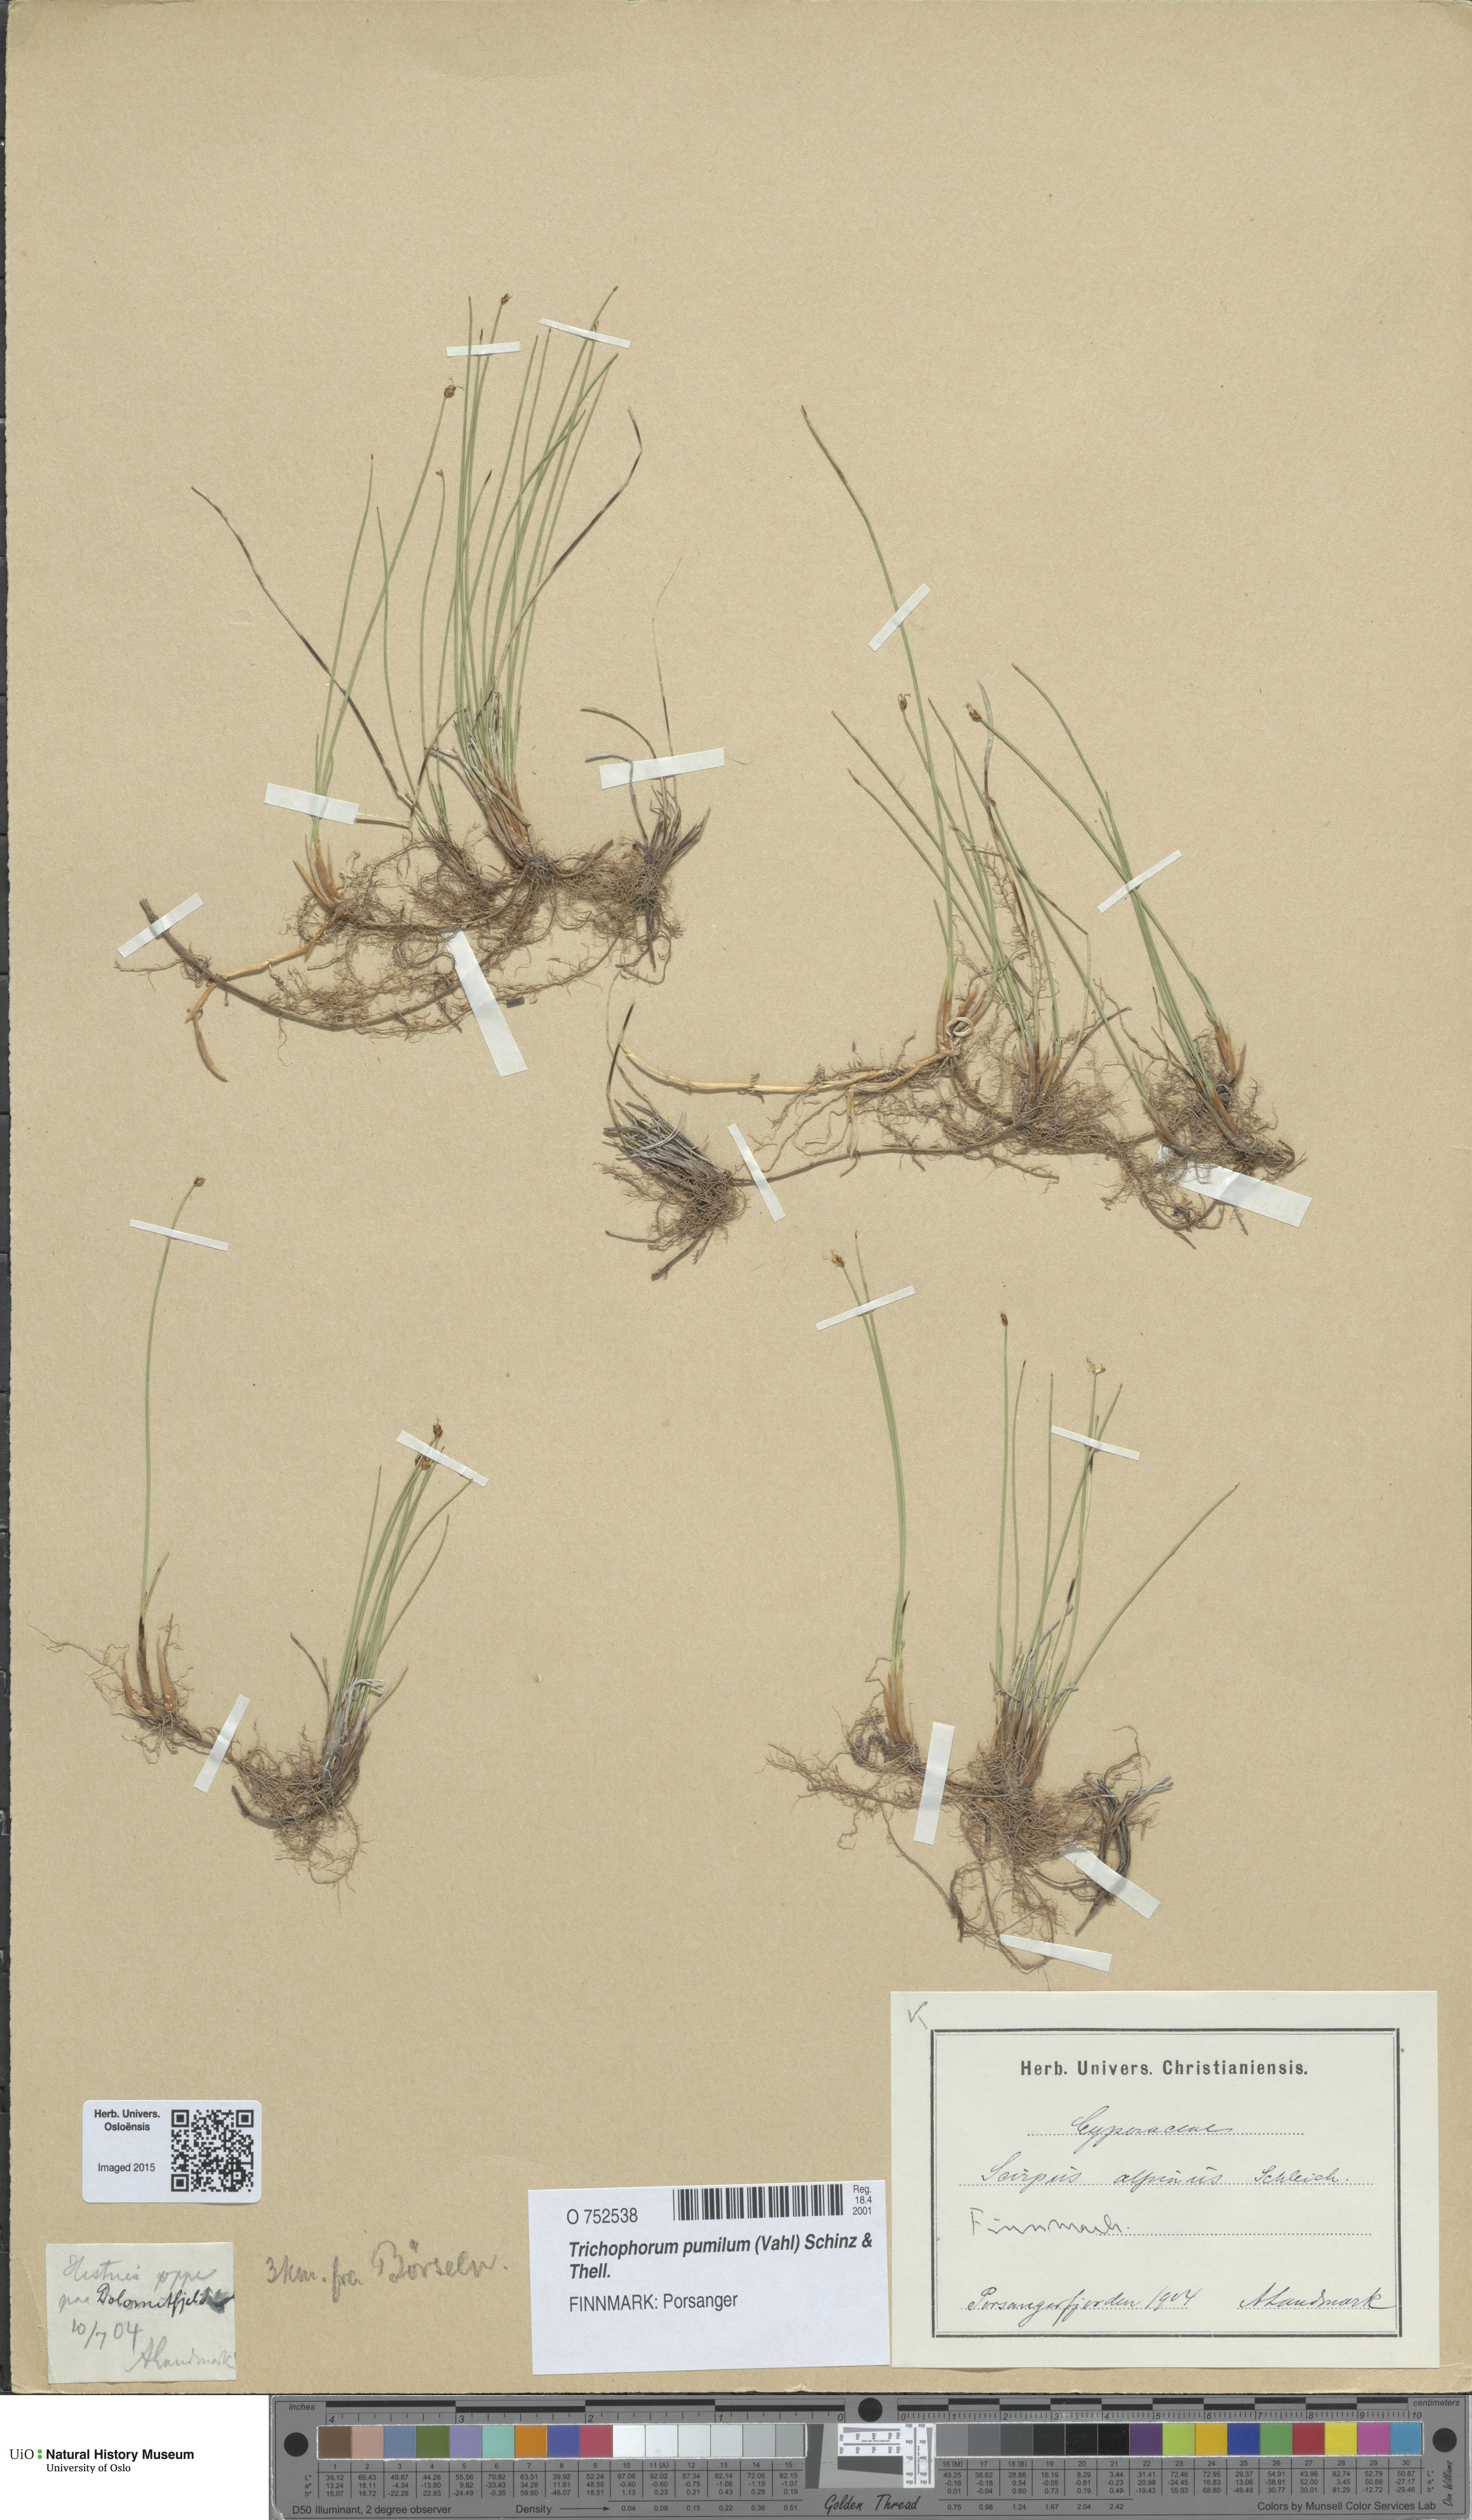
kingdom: Plantae
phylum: Tracheophyta
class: Liliopsida
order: Poales
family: Cyperaceae
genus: Trichophorum
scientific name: Trichophorum pumilum
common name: Rolland's bulrush
